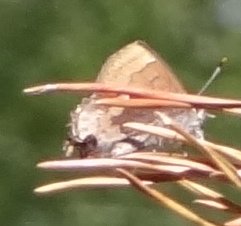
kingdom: Animalia
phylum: Arthropoda
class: Insecta
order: Lepidoptera
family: Lycaenidae
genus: Incisalia
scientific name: Incisalia henrici
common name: Henry's Elfin
